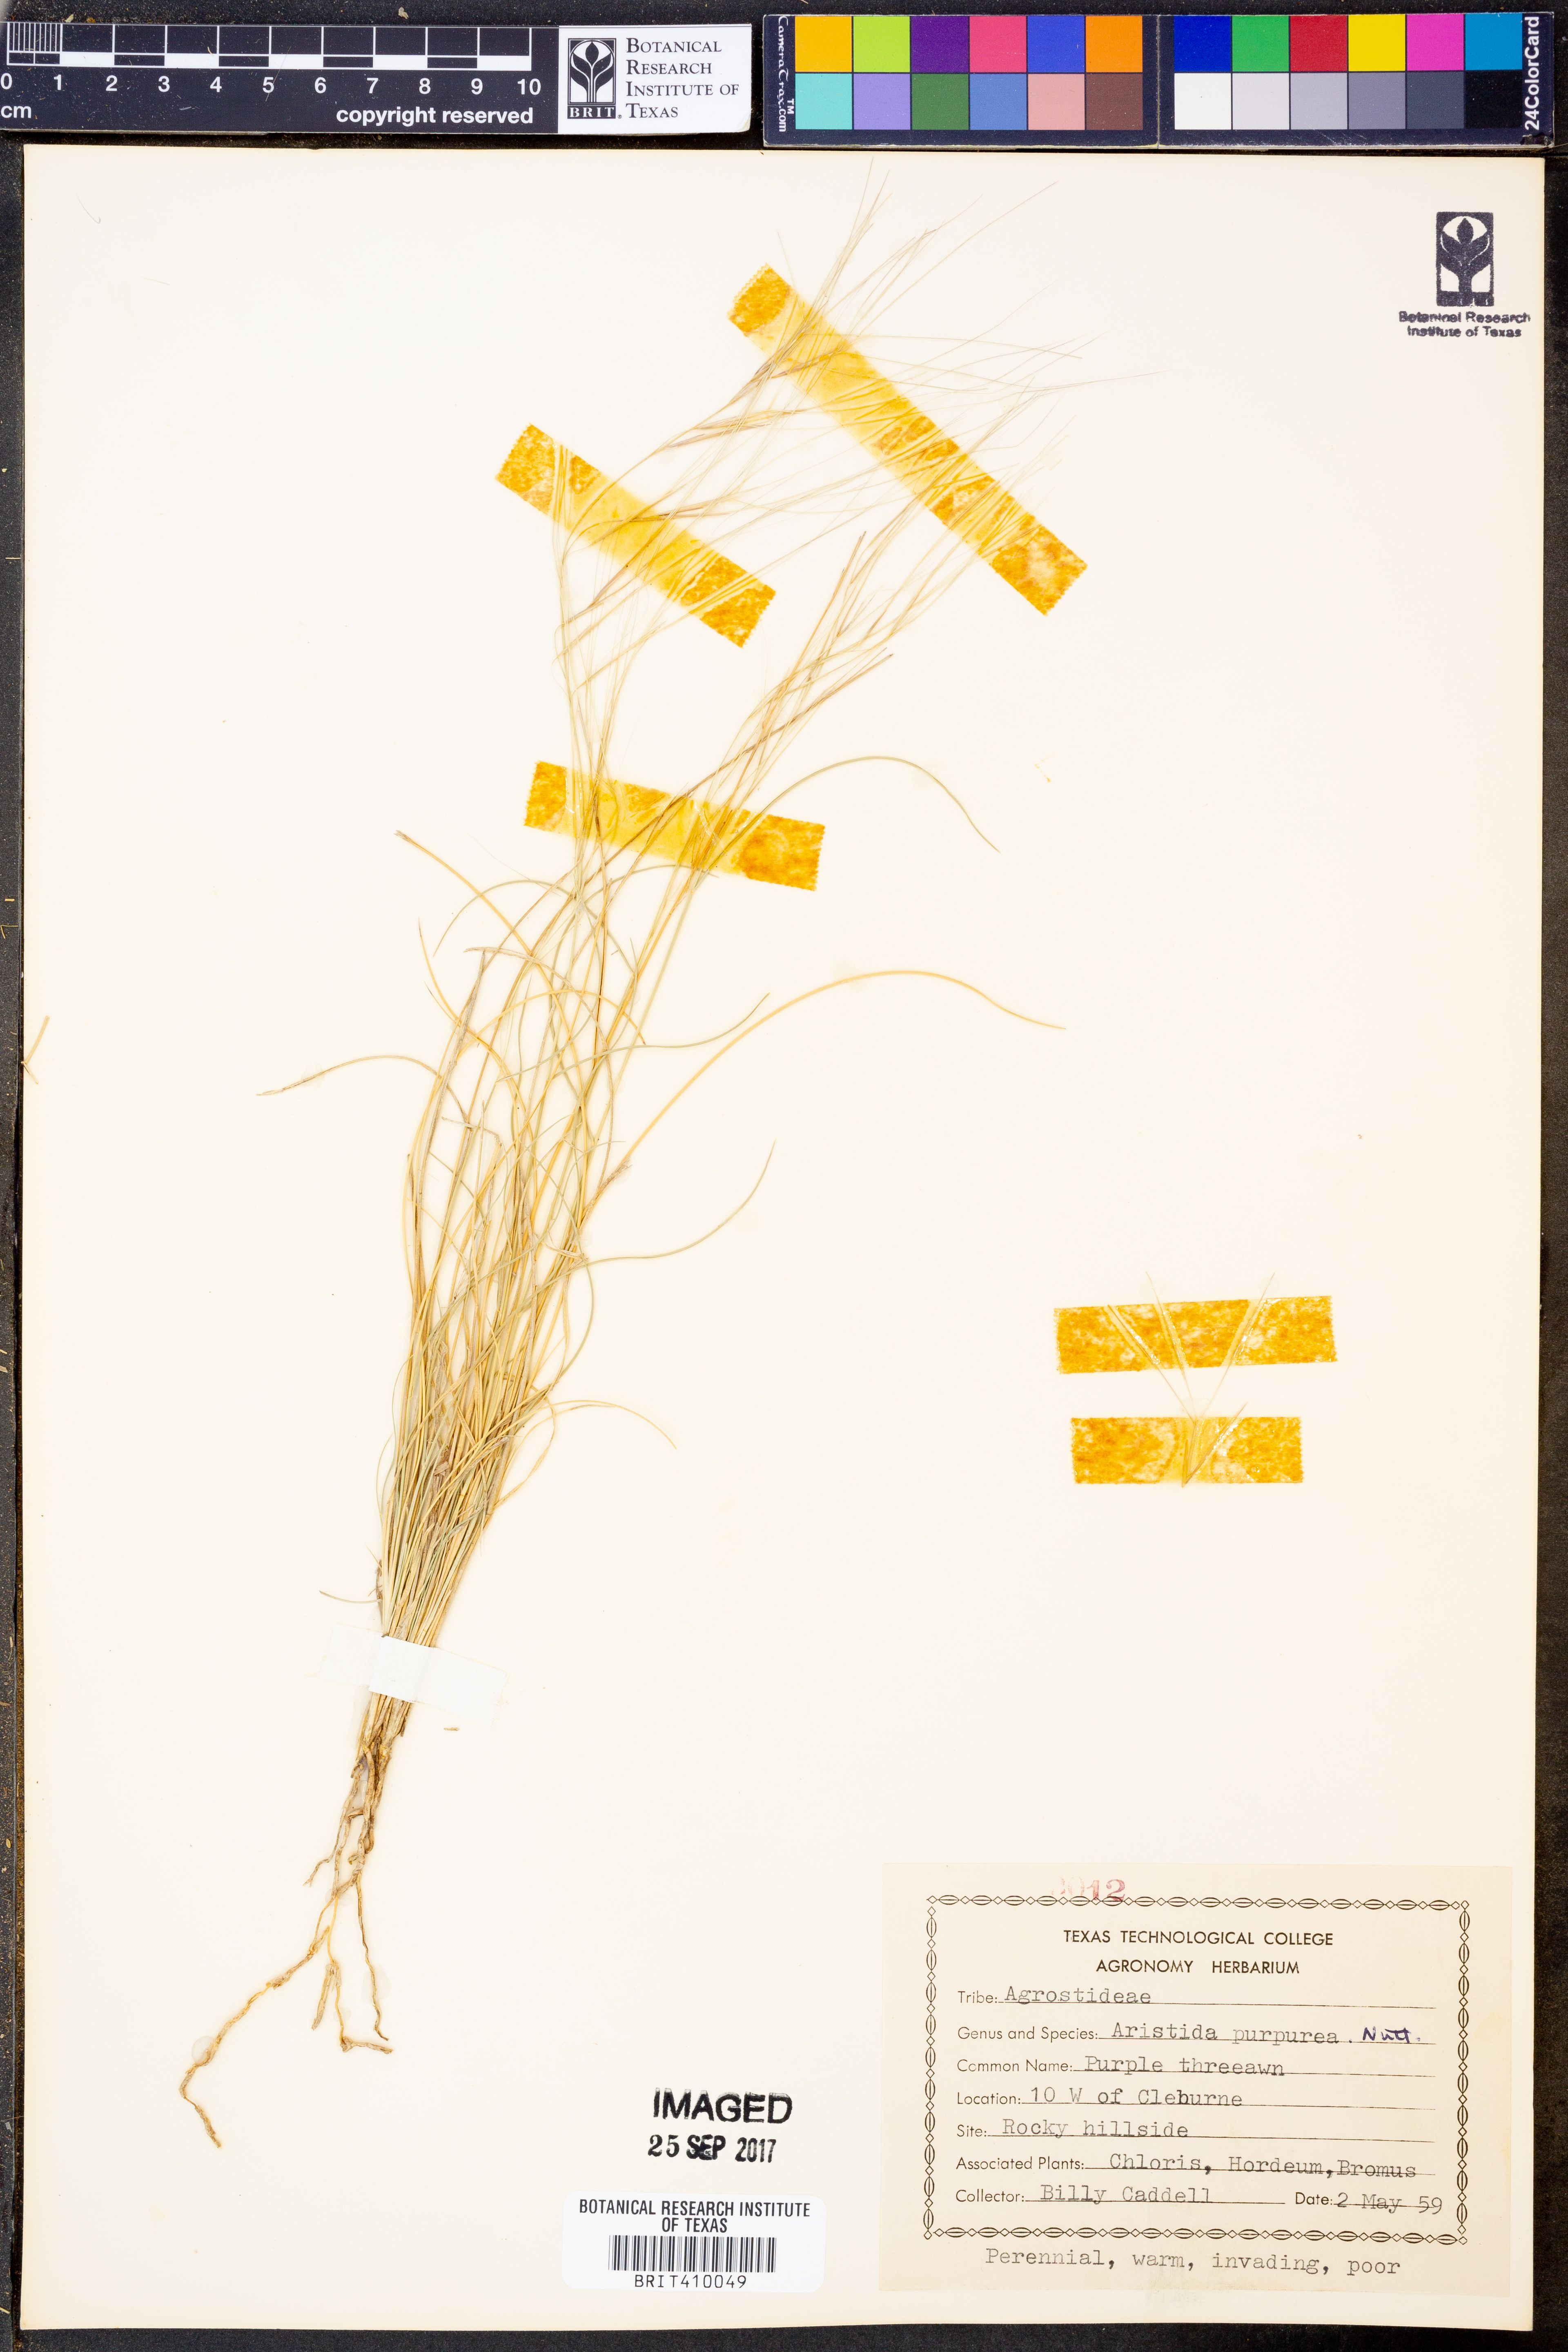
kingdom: Plantae
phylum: Tracheophyta
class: Liliopsida
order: Poales
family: Poaceae
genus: Aristida
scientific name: Aristida purpurea
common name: Purple threeawn
